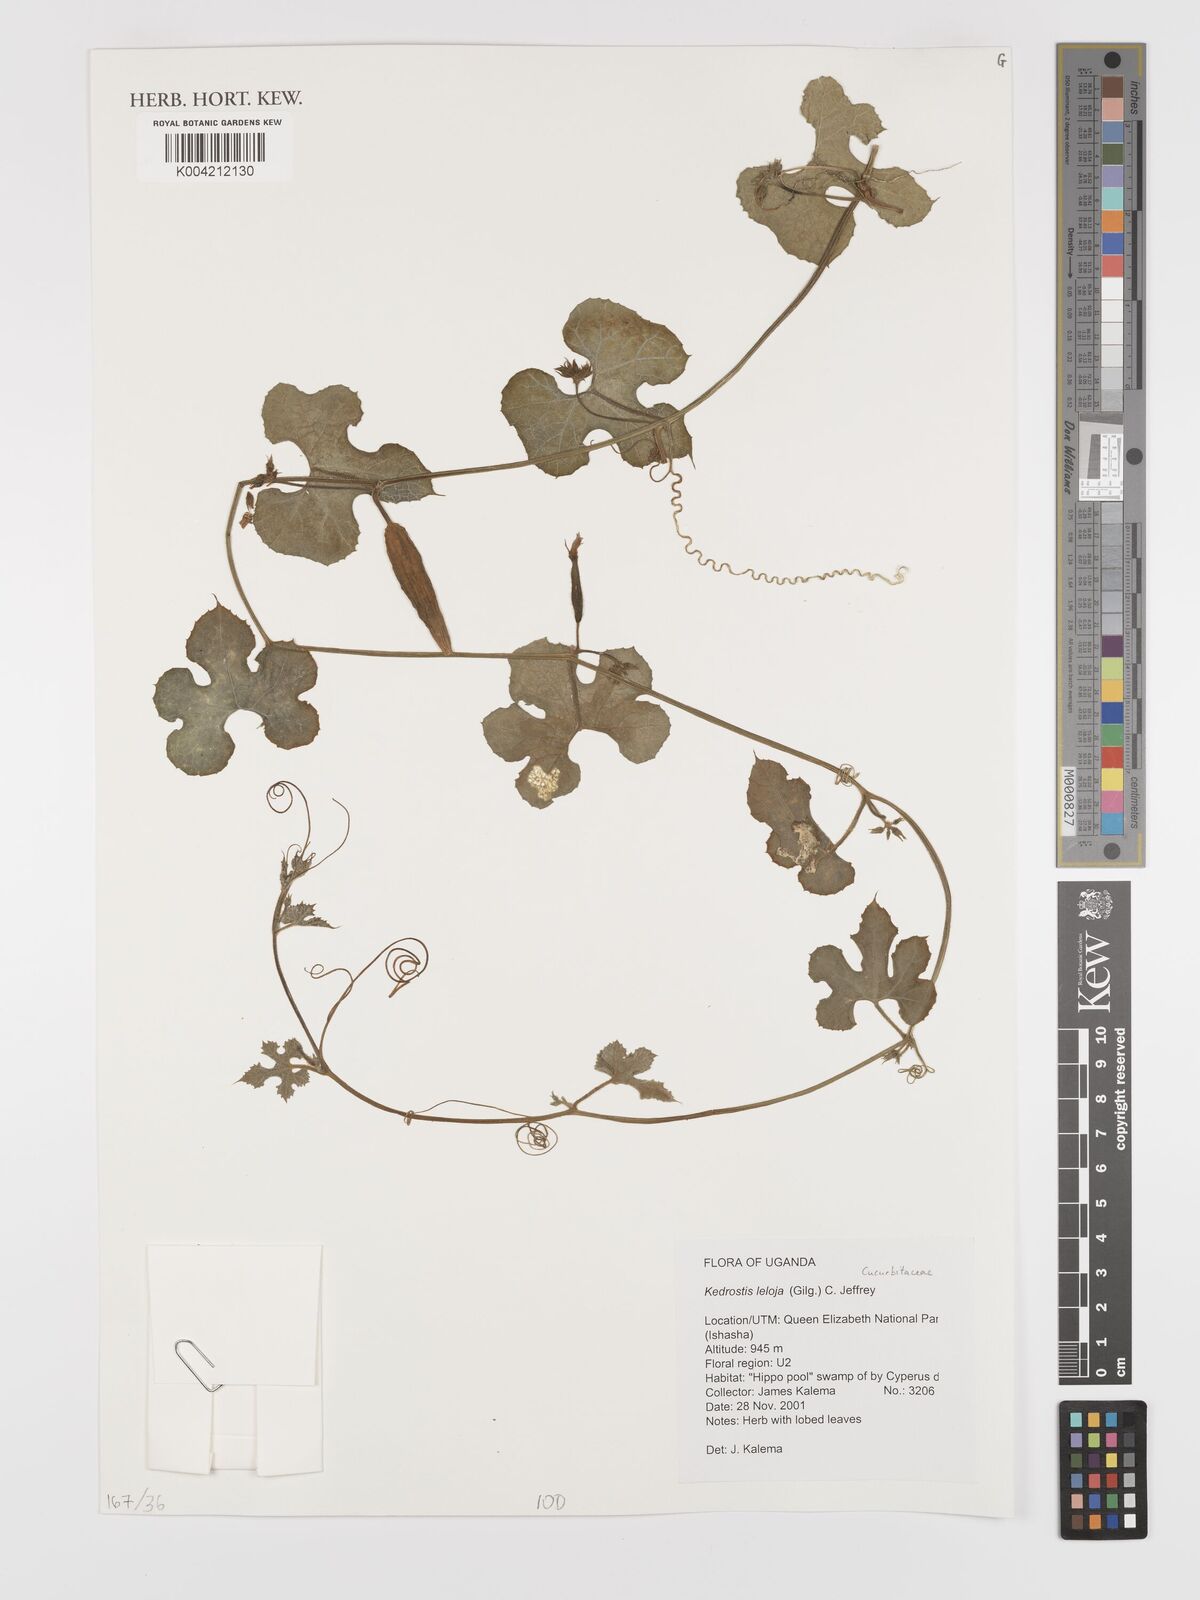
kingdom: Plantae
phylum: Tracheophyta
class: Magnoliopsida
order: Cucurbitales
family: Cucurbitaceae
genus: Kedrostis
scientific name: Kedrostis leloja
